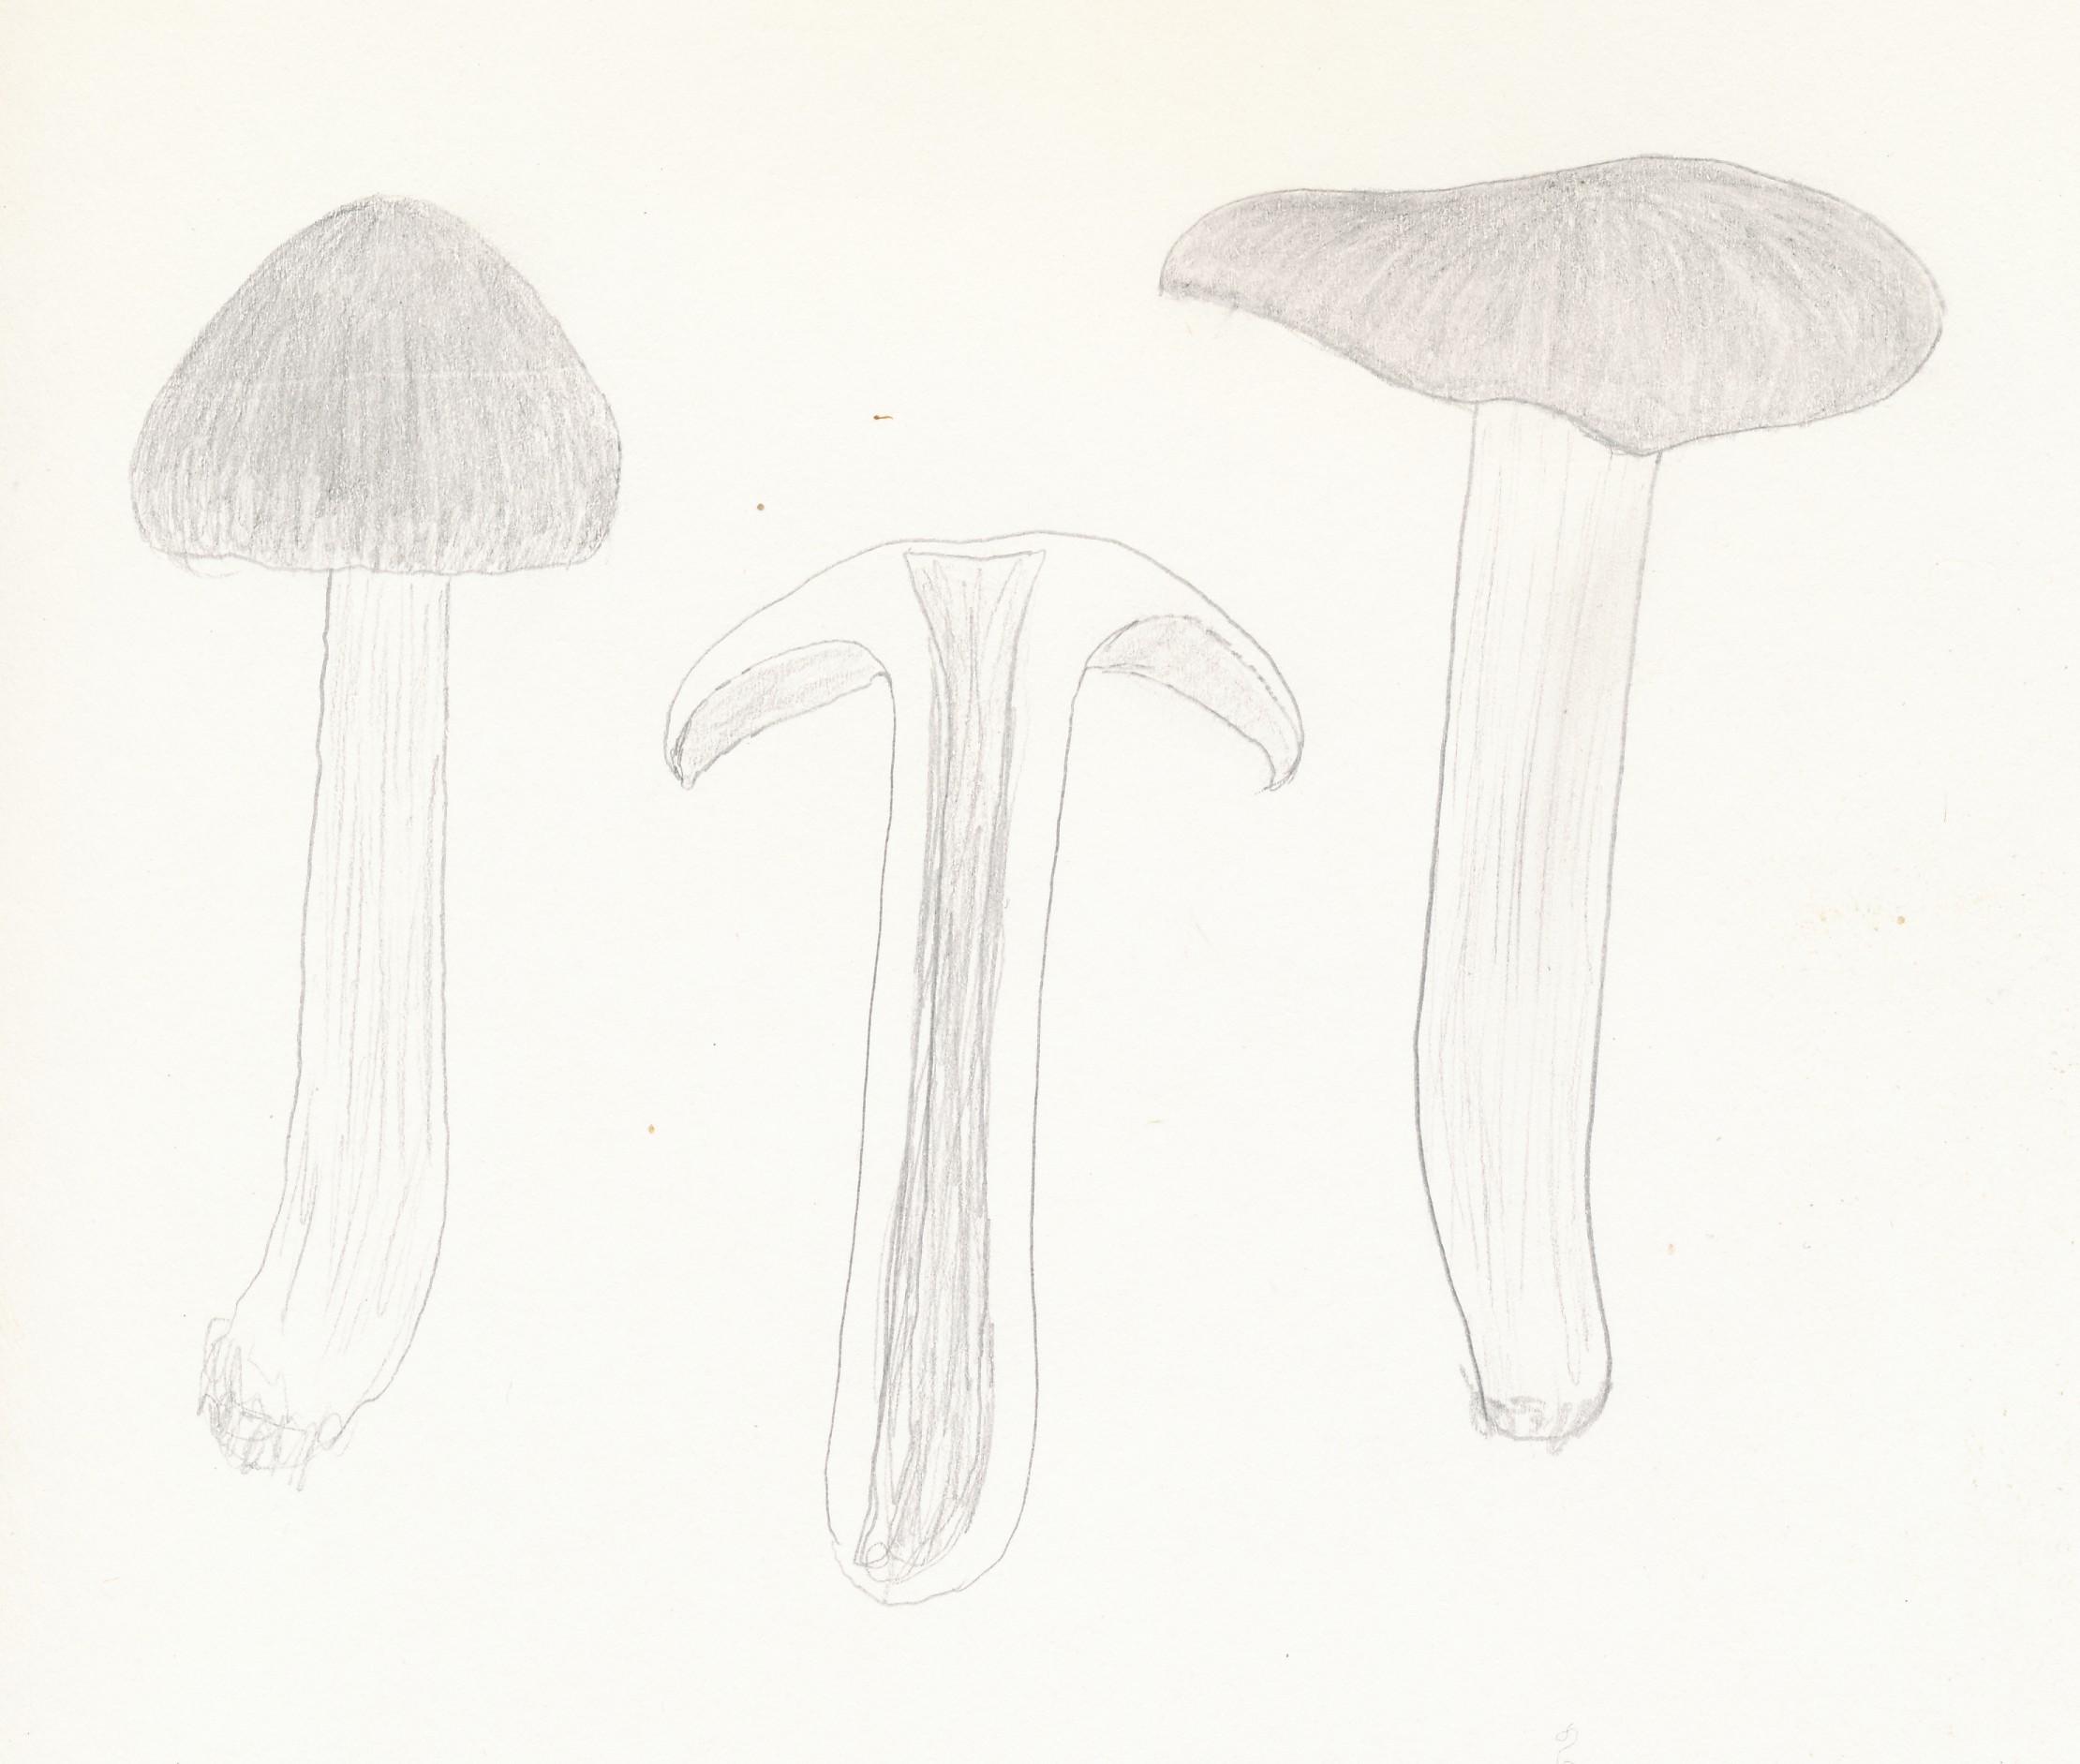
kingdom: Fungi
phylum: Basidiomycota
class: Agaricomycetes
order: Russulales
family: Russulaceae
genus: Russula
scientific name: Russula puellaris
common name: gulstokket skørhat
